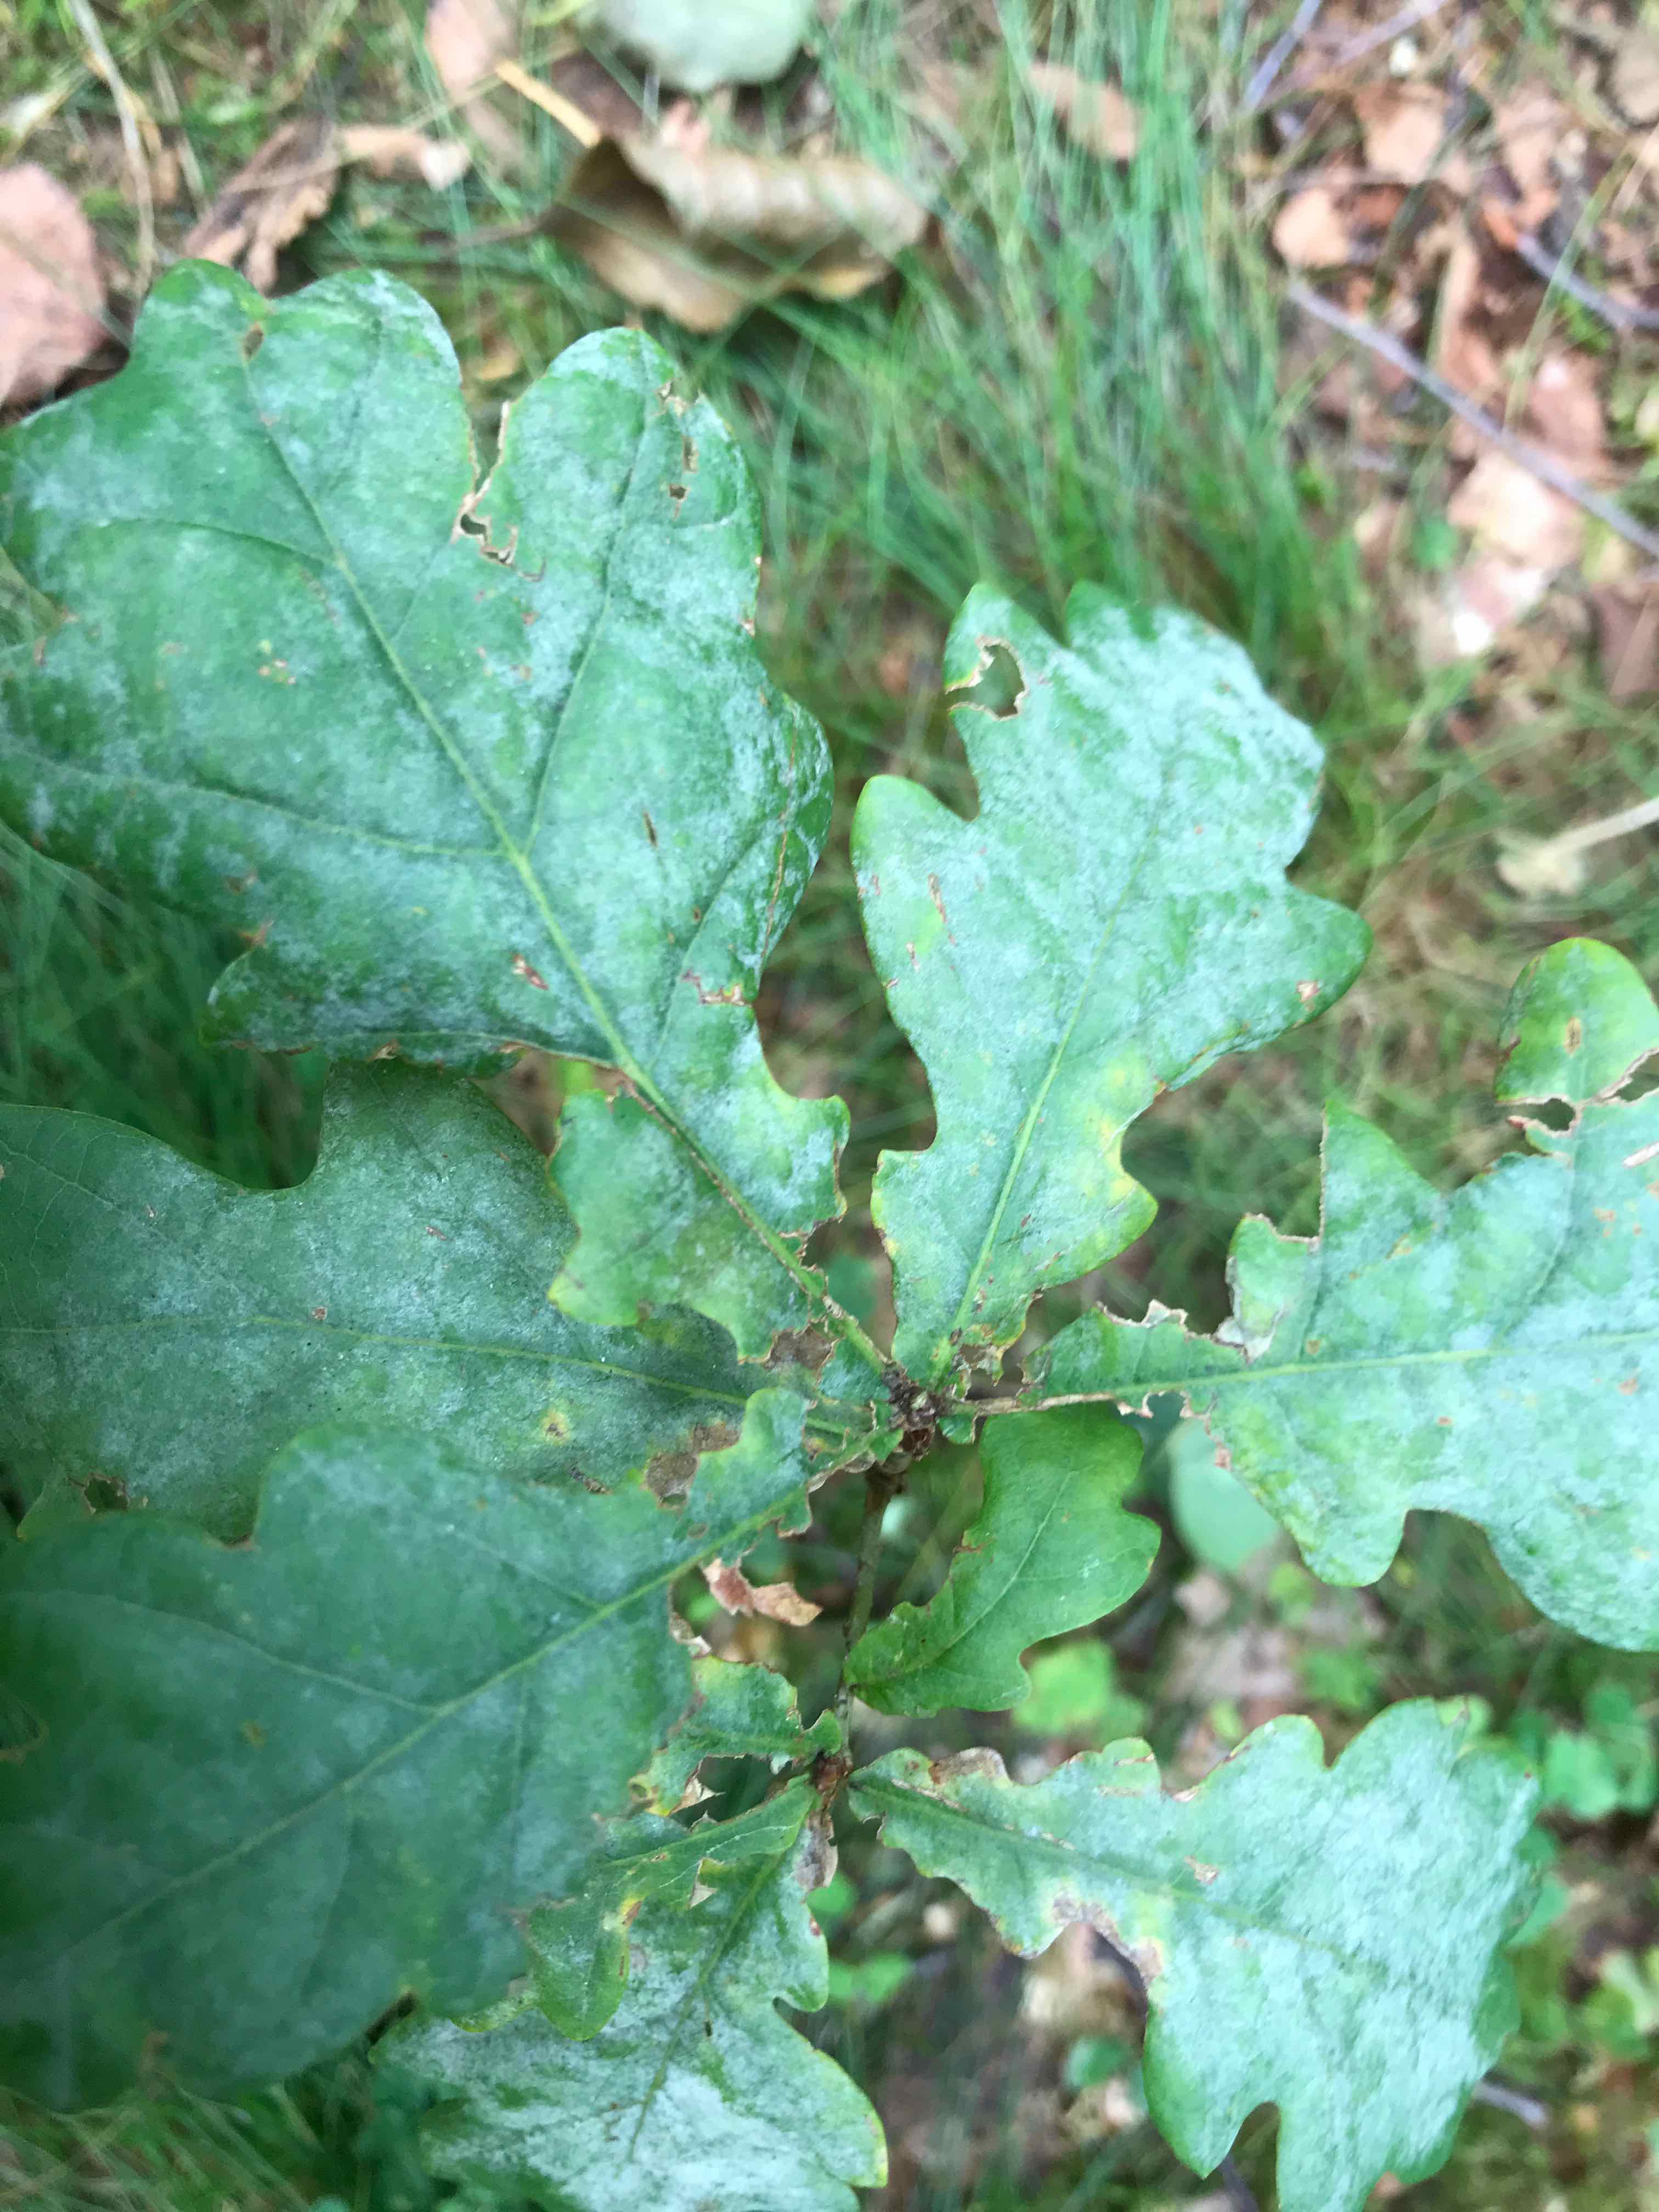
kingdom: Fungi
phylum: Ascomycota
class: Leotiomycetes
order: Helotiales
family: Erysiphaceae
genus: Erysiphe
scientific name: Erysiphe alphitoides
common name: ege-meldug
